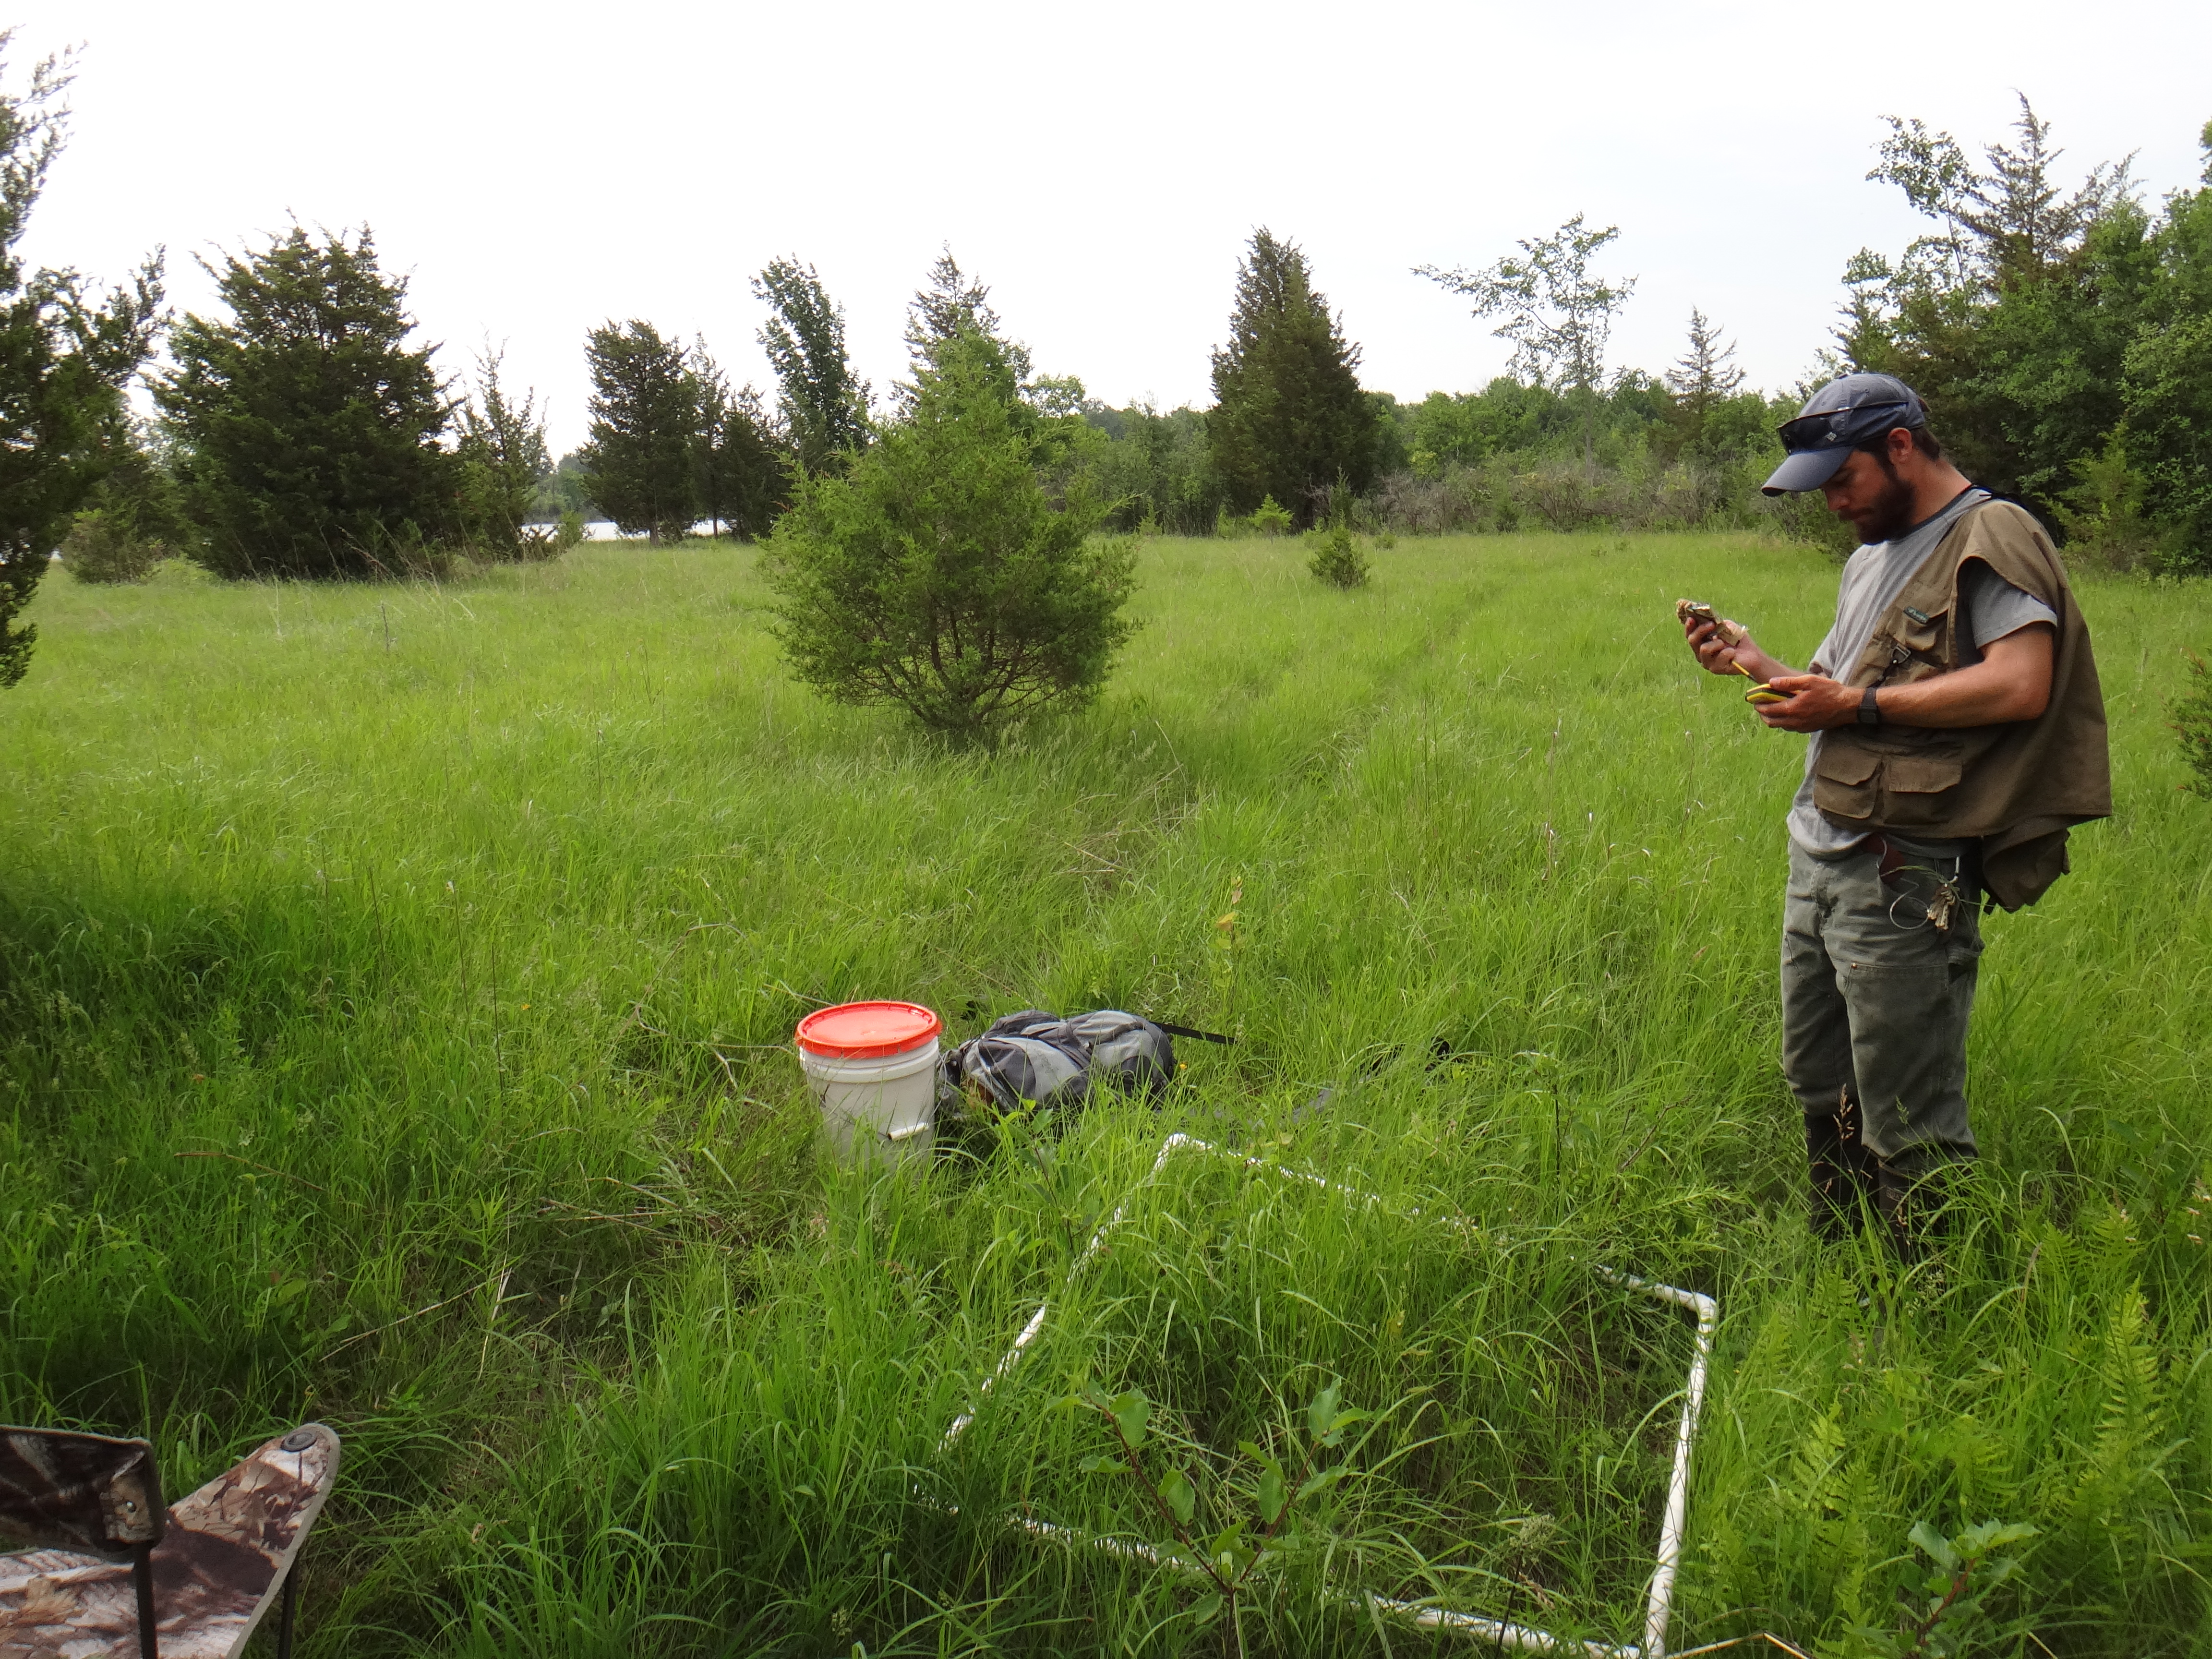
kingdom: Plantae
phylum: Tracheophyta
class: Magnoliopsida
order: Celastrales
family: Parnassiaceae
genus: Parnassia
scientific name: Parnassia glauca
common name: American grass-of-parnassus
